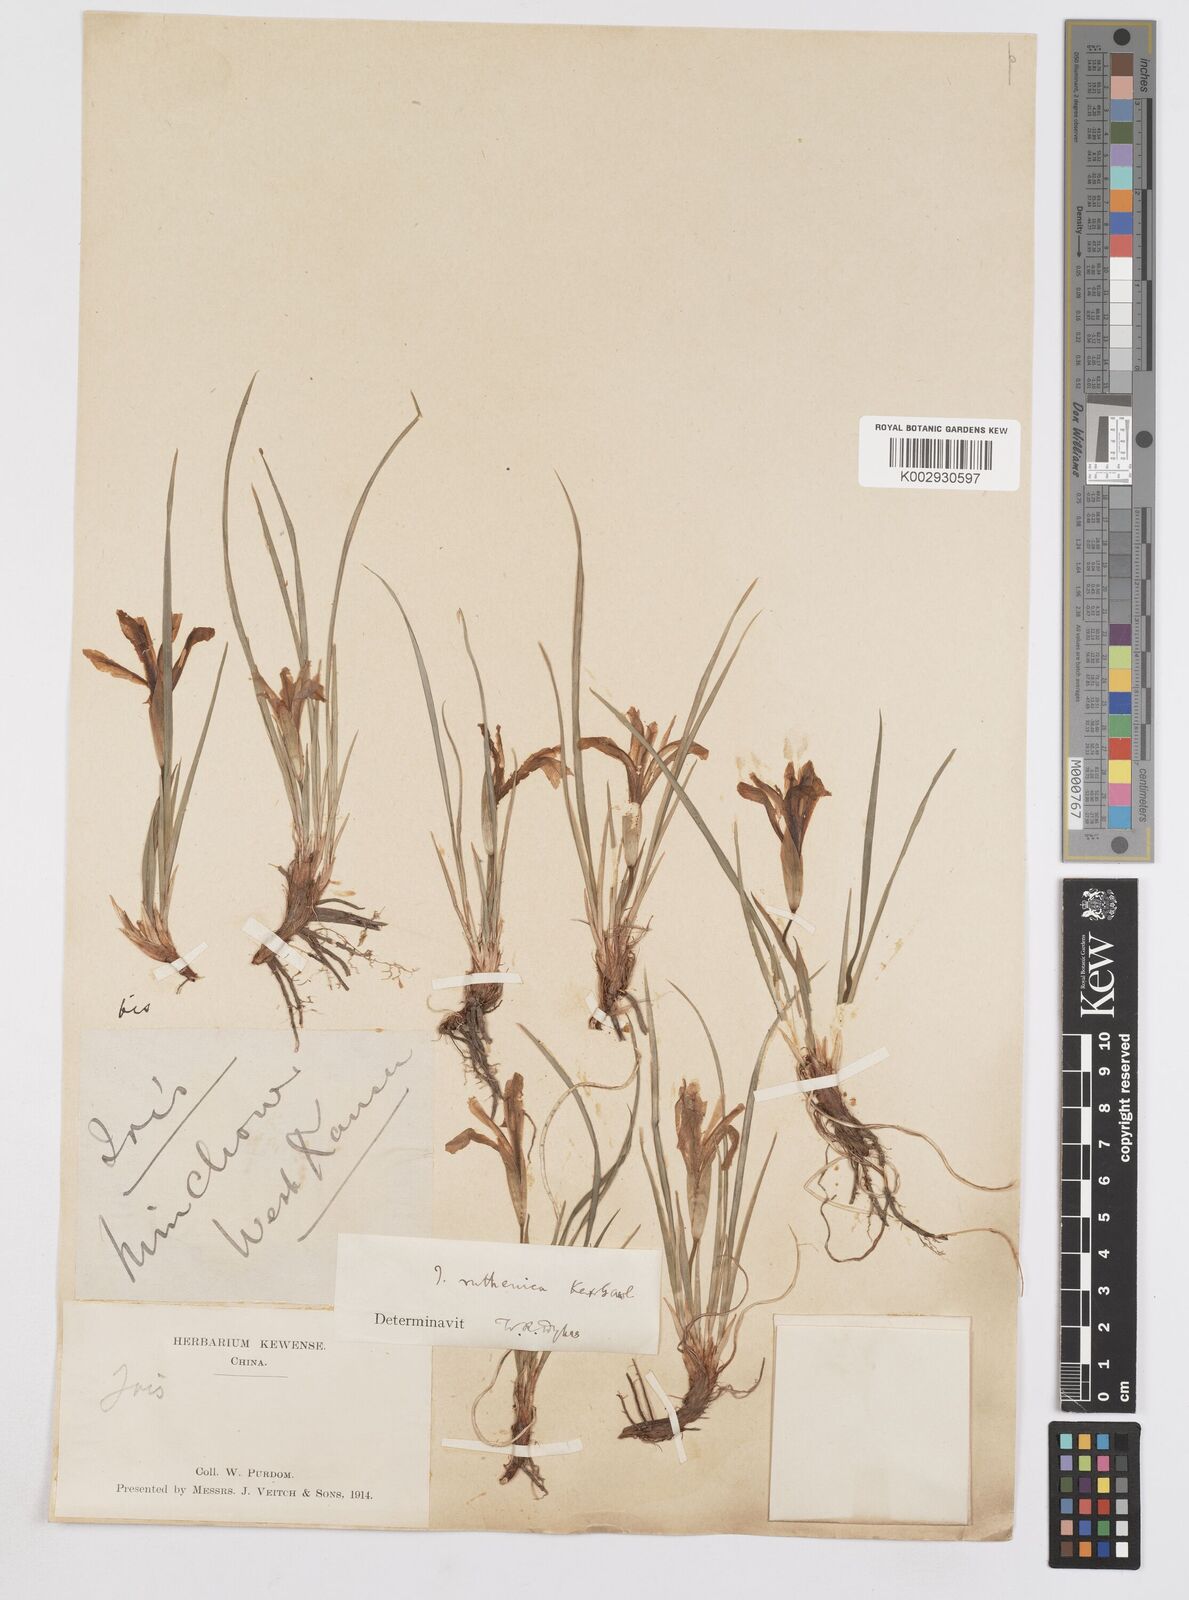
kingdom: Plantae
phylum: Tracheophyta
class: Liliopsida
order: Asparagales
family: Iridaceae
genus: Iris
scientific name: Iris
